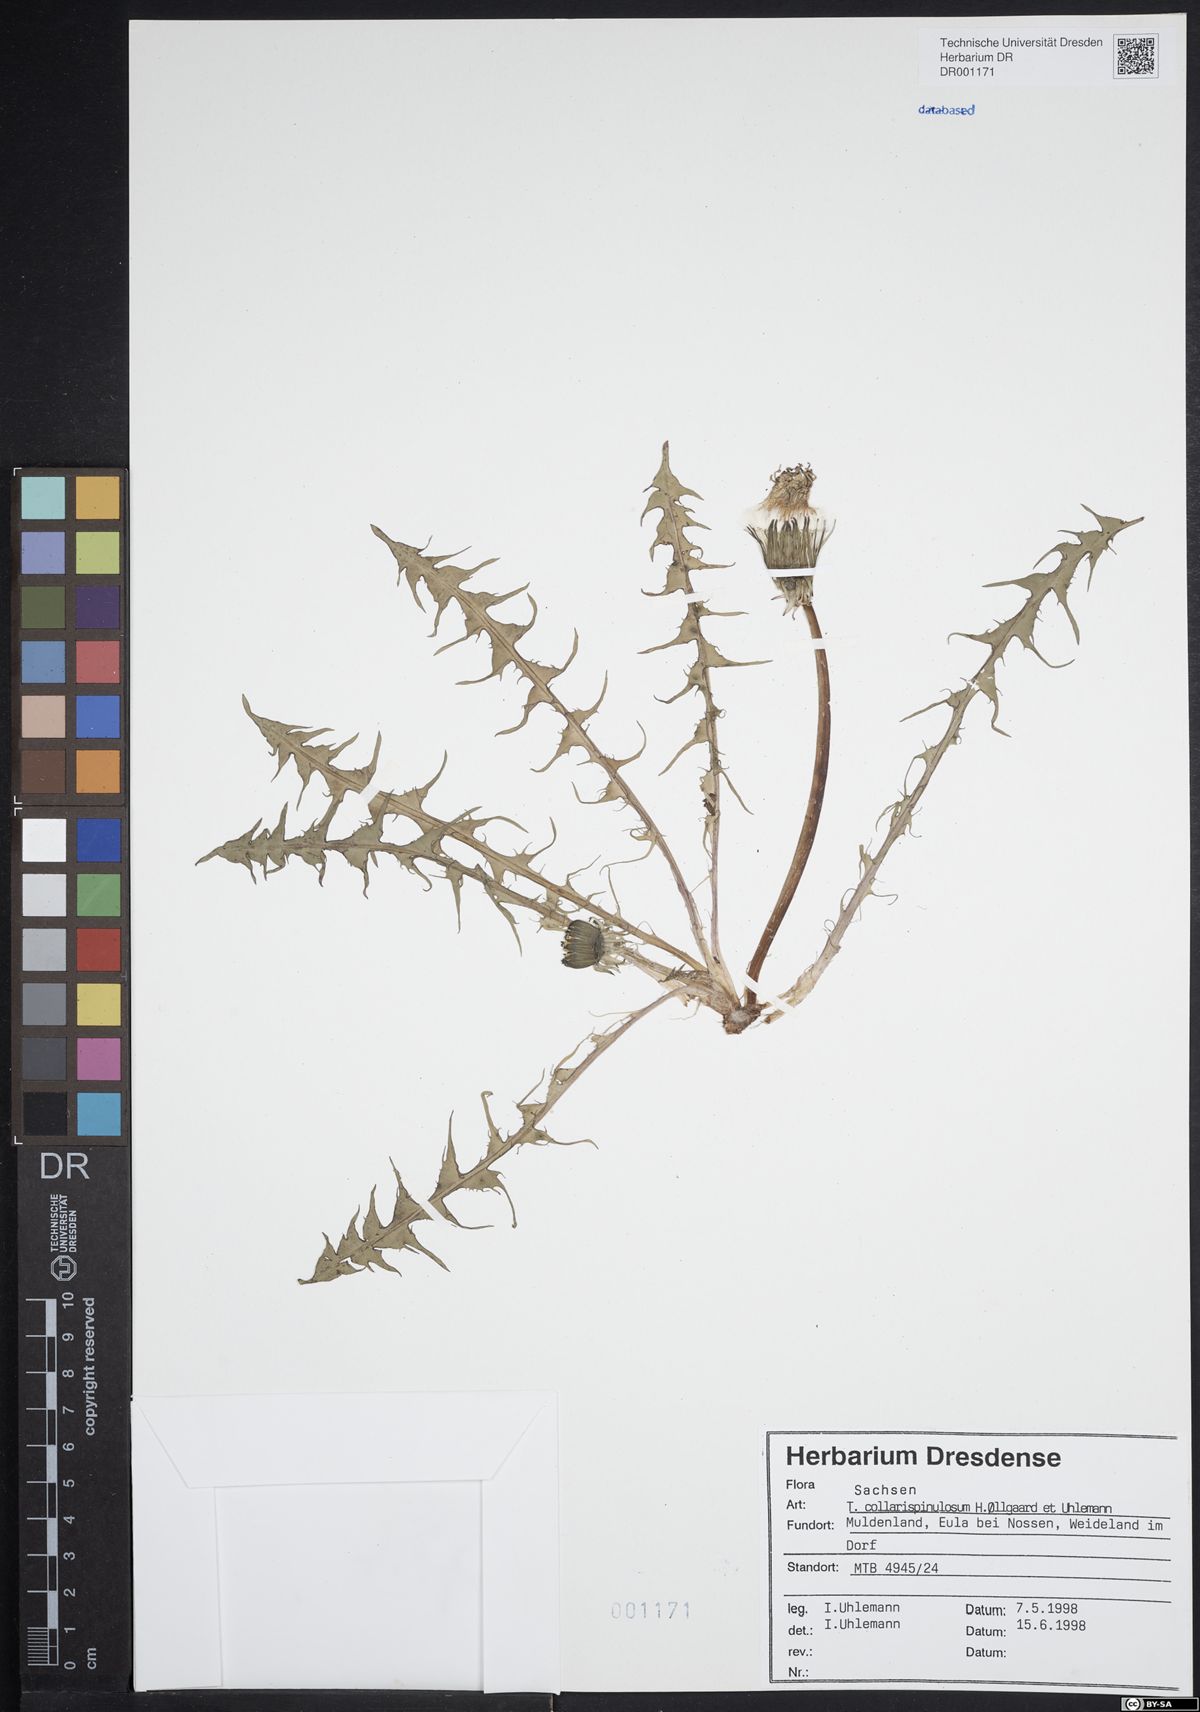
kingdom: Plantae
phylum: Tracheophyta
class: Magnoliopsida
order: Asterales
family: Asteraceae
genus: Taraxacum
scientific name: Taraxacum collarispinulosum
